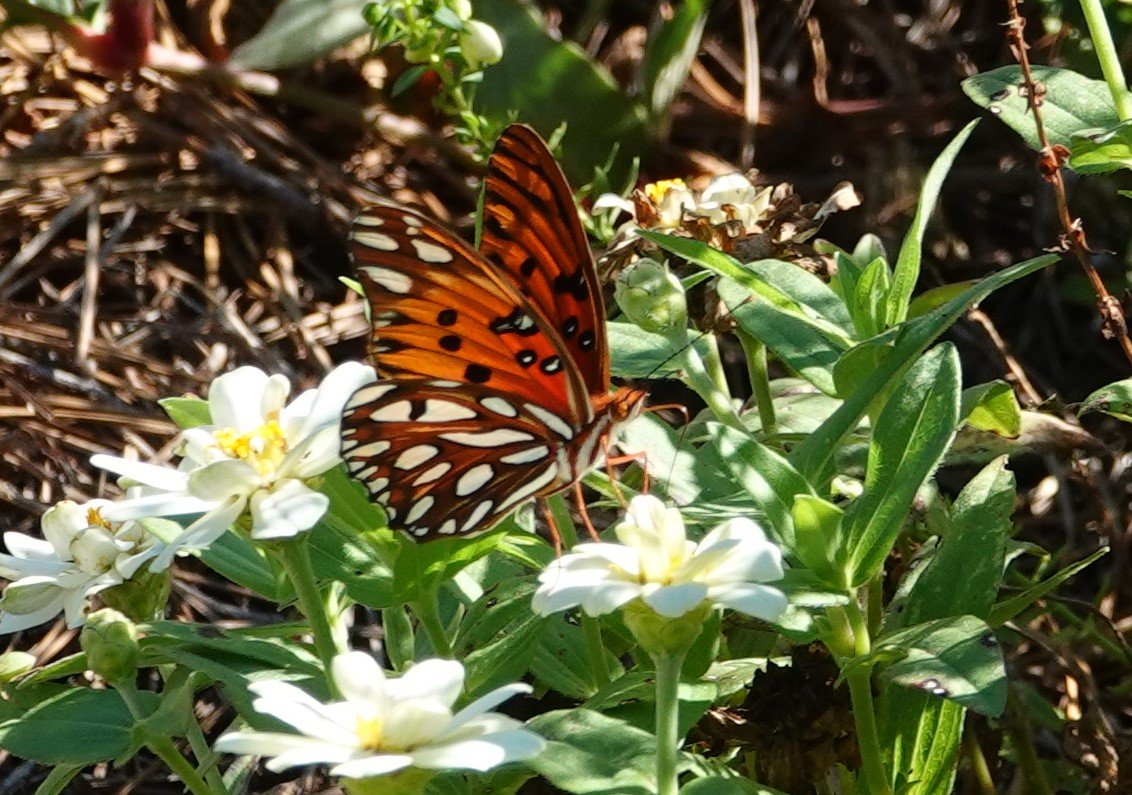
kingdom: Animalia
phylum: Arthropoda
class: Insecta
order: Lepidoptera
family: Nymphalidae
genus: Dione
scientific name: Dione vanillae
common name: Gulf Fritillary
